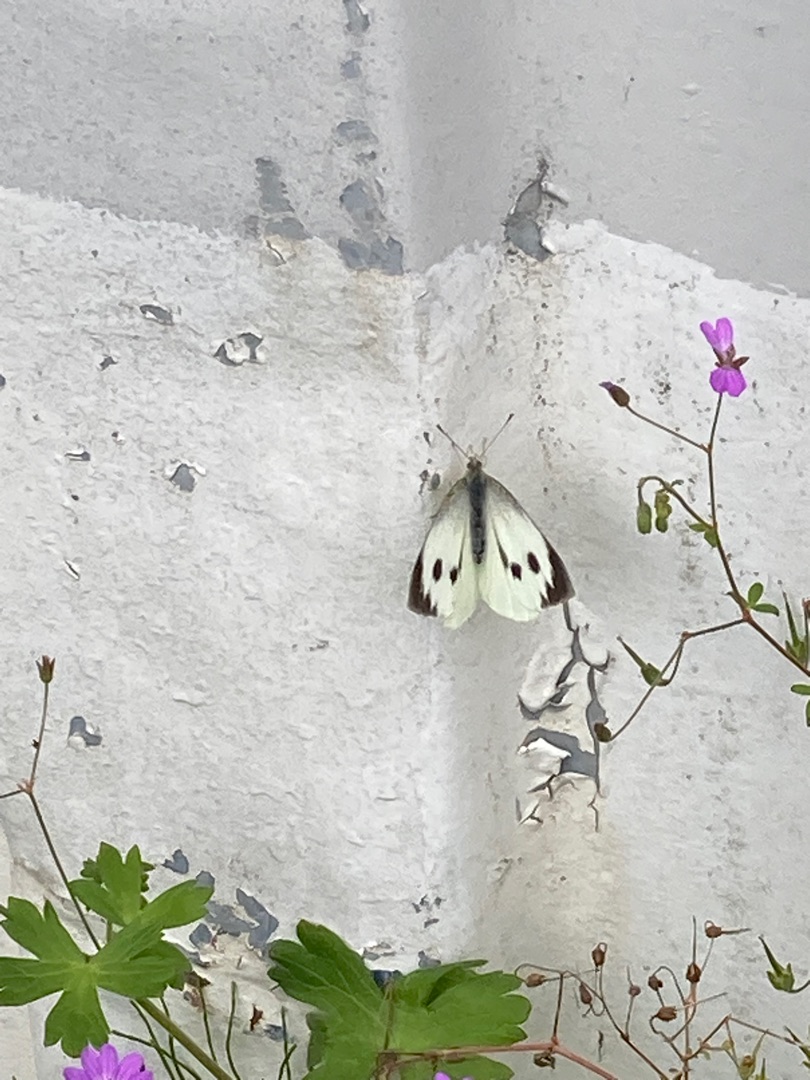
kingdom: Animalia
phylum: Arthropoda
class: Insecta
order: Lepidoptera
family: Pieridae
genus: Pieris
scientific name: Pieris brassicae
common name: Stor kålsommerfugl
